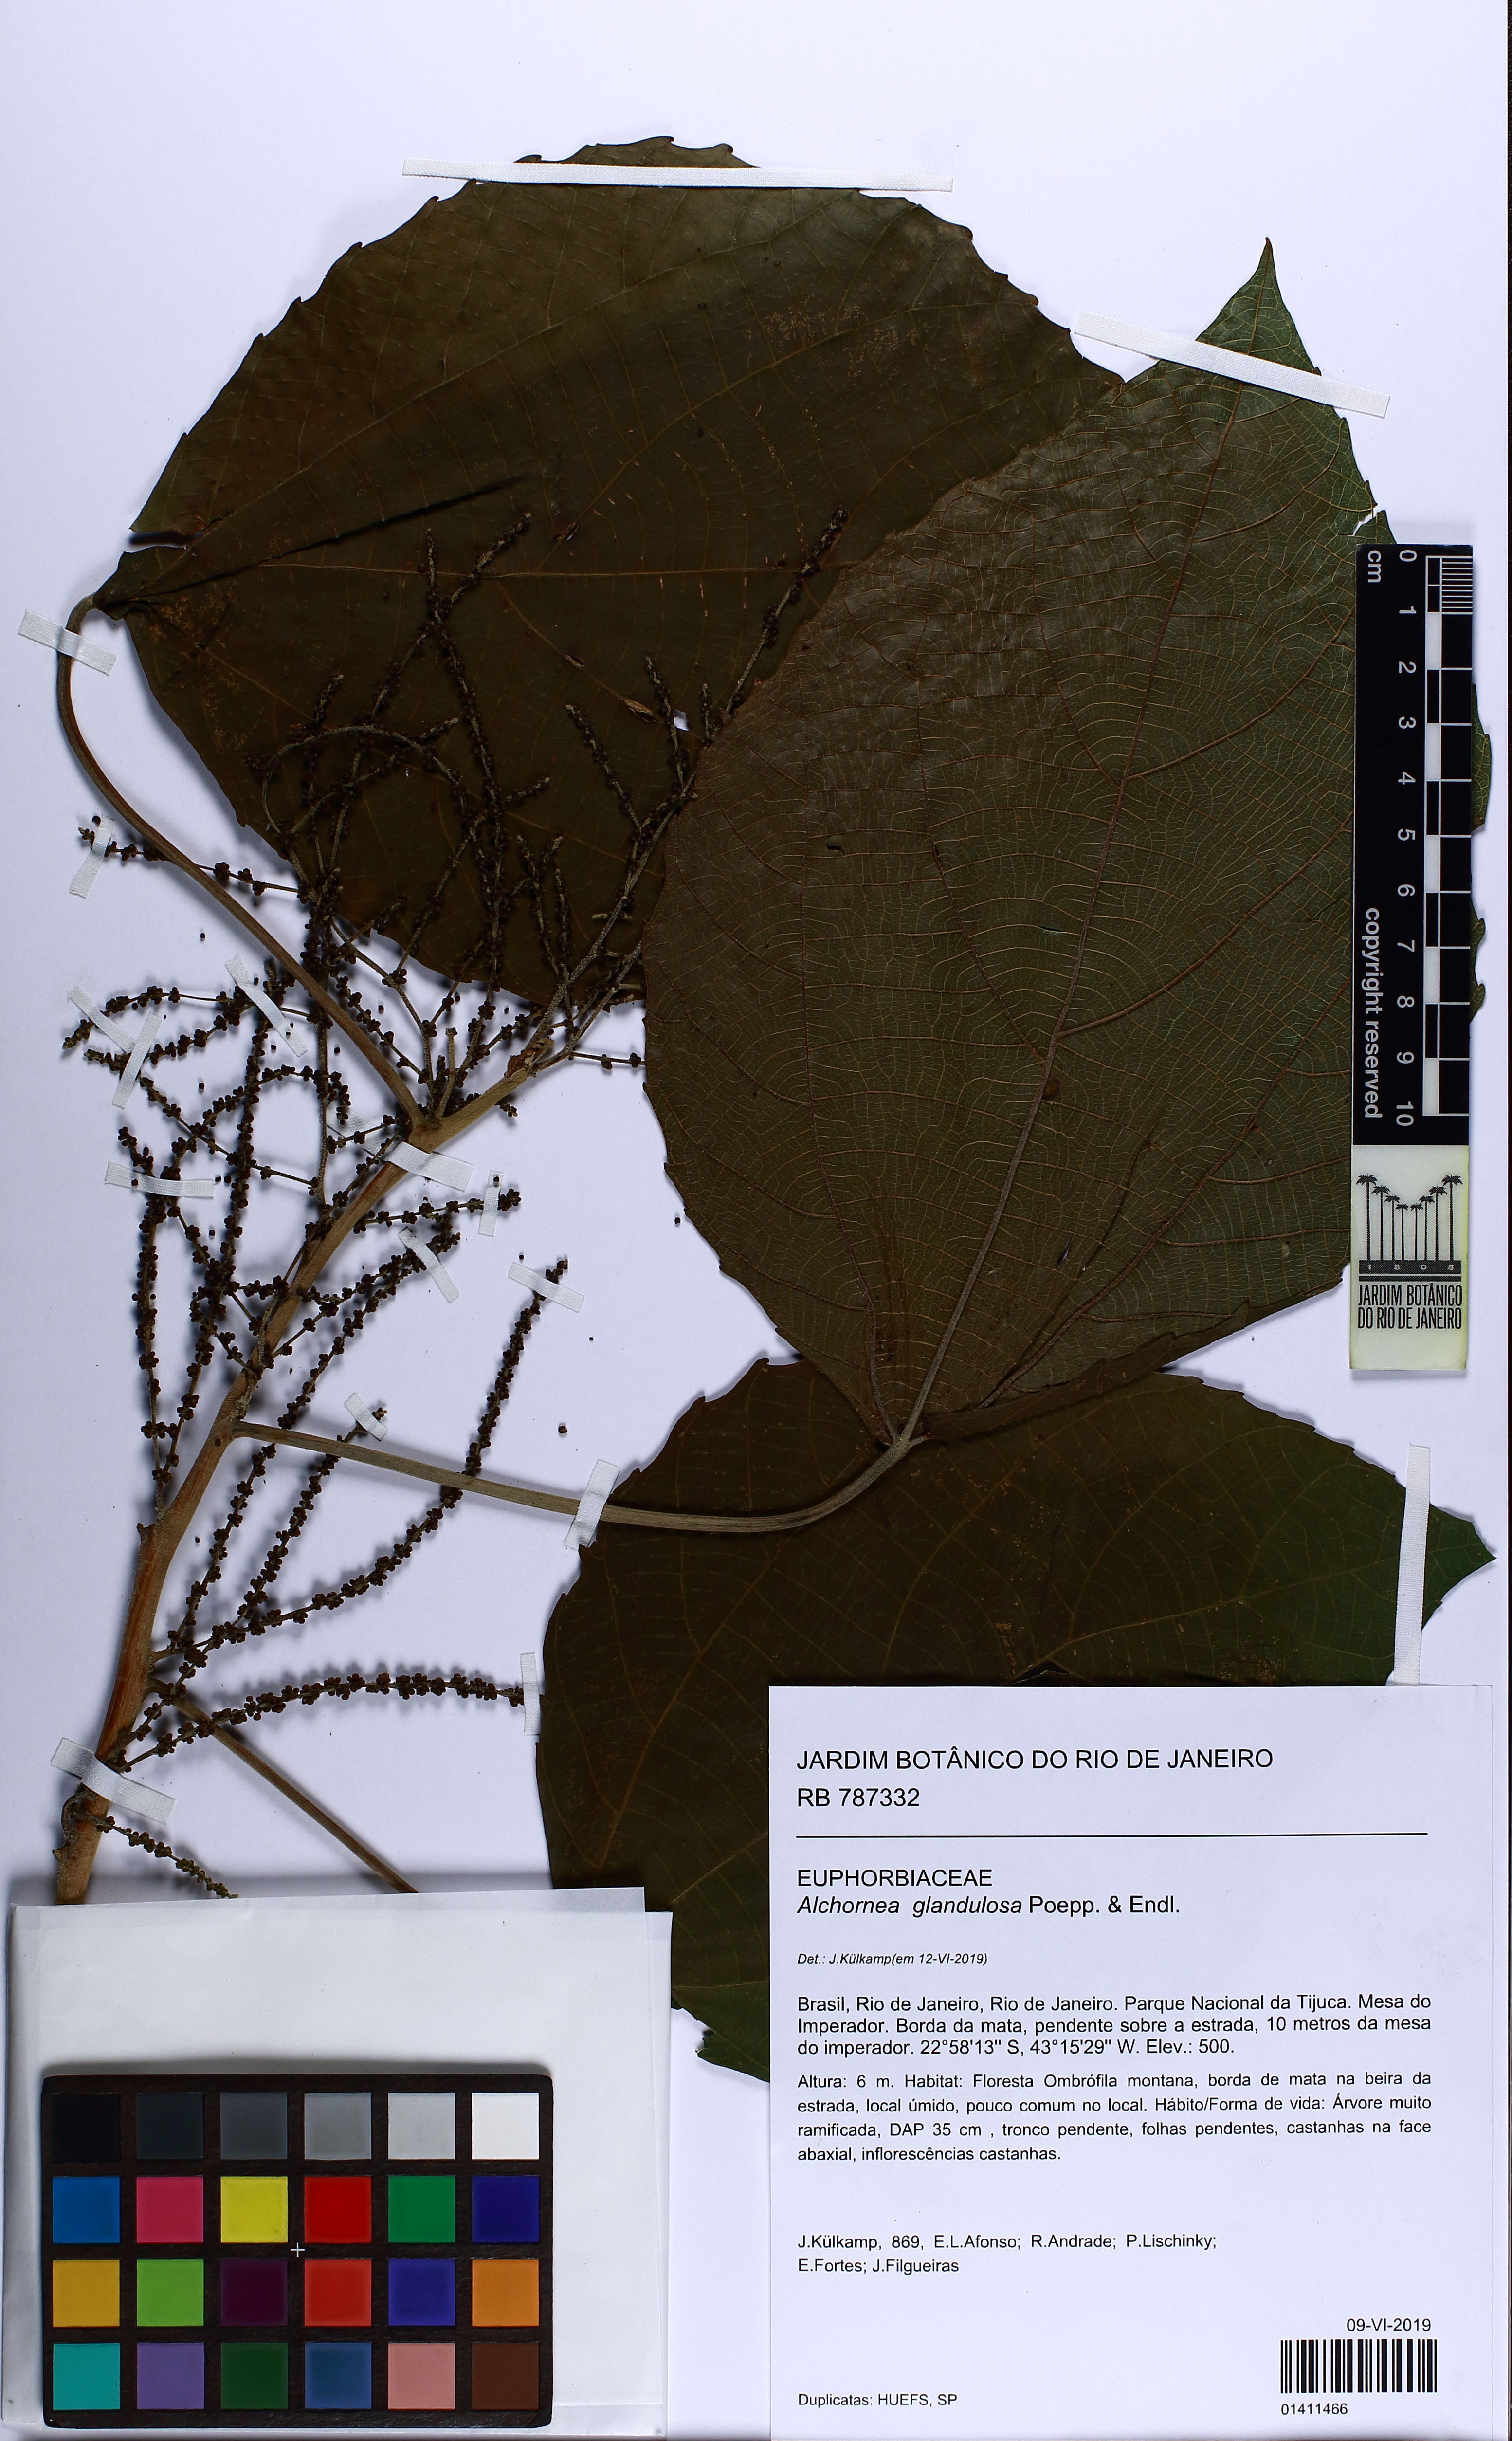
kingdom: Plantae
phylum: Tracheophyta
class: Magnoliopsida
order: Malpighiales
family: Euphorbiaceae
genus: Alchornea
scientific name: Alchornea glandulosa
